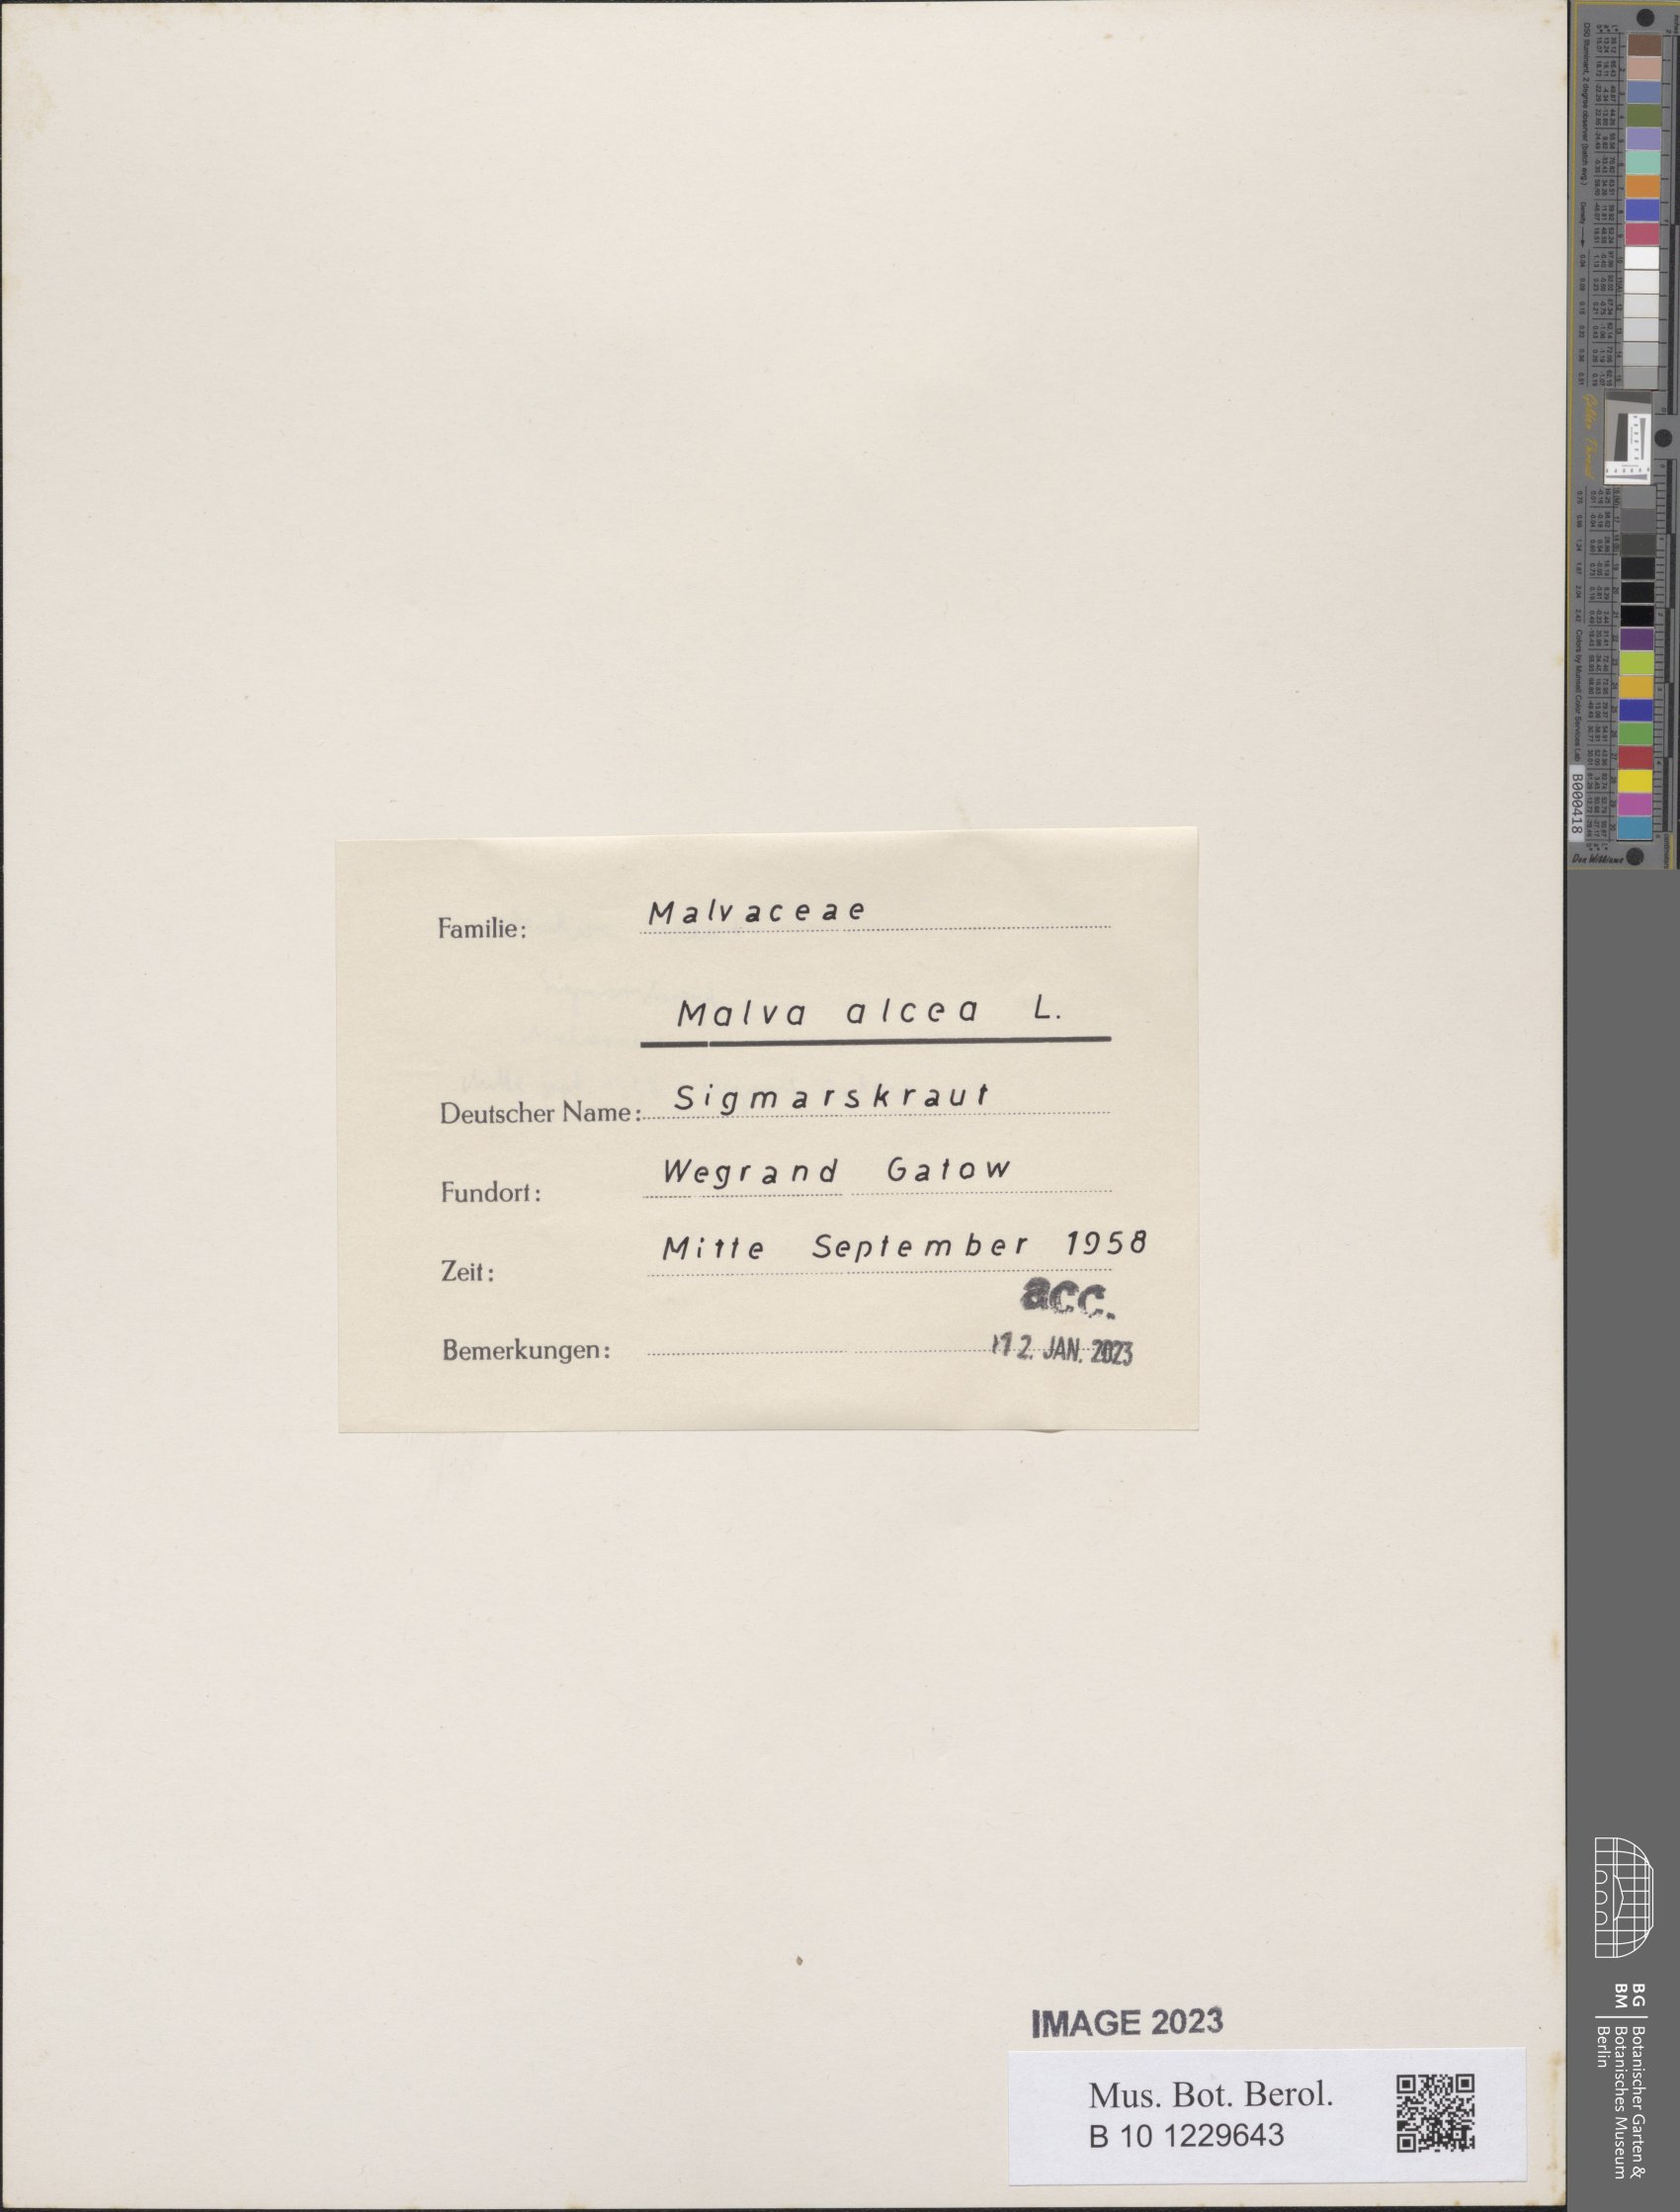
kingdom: Plantae
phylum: Tracheophyta
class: Magnoliopsida
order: Malvales
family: Malvaceae
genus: Malva
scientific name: Malva alcea
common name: Greater musk-mallow
